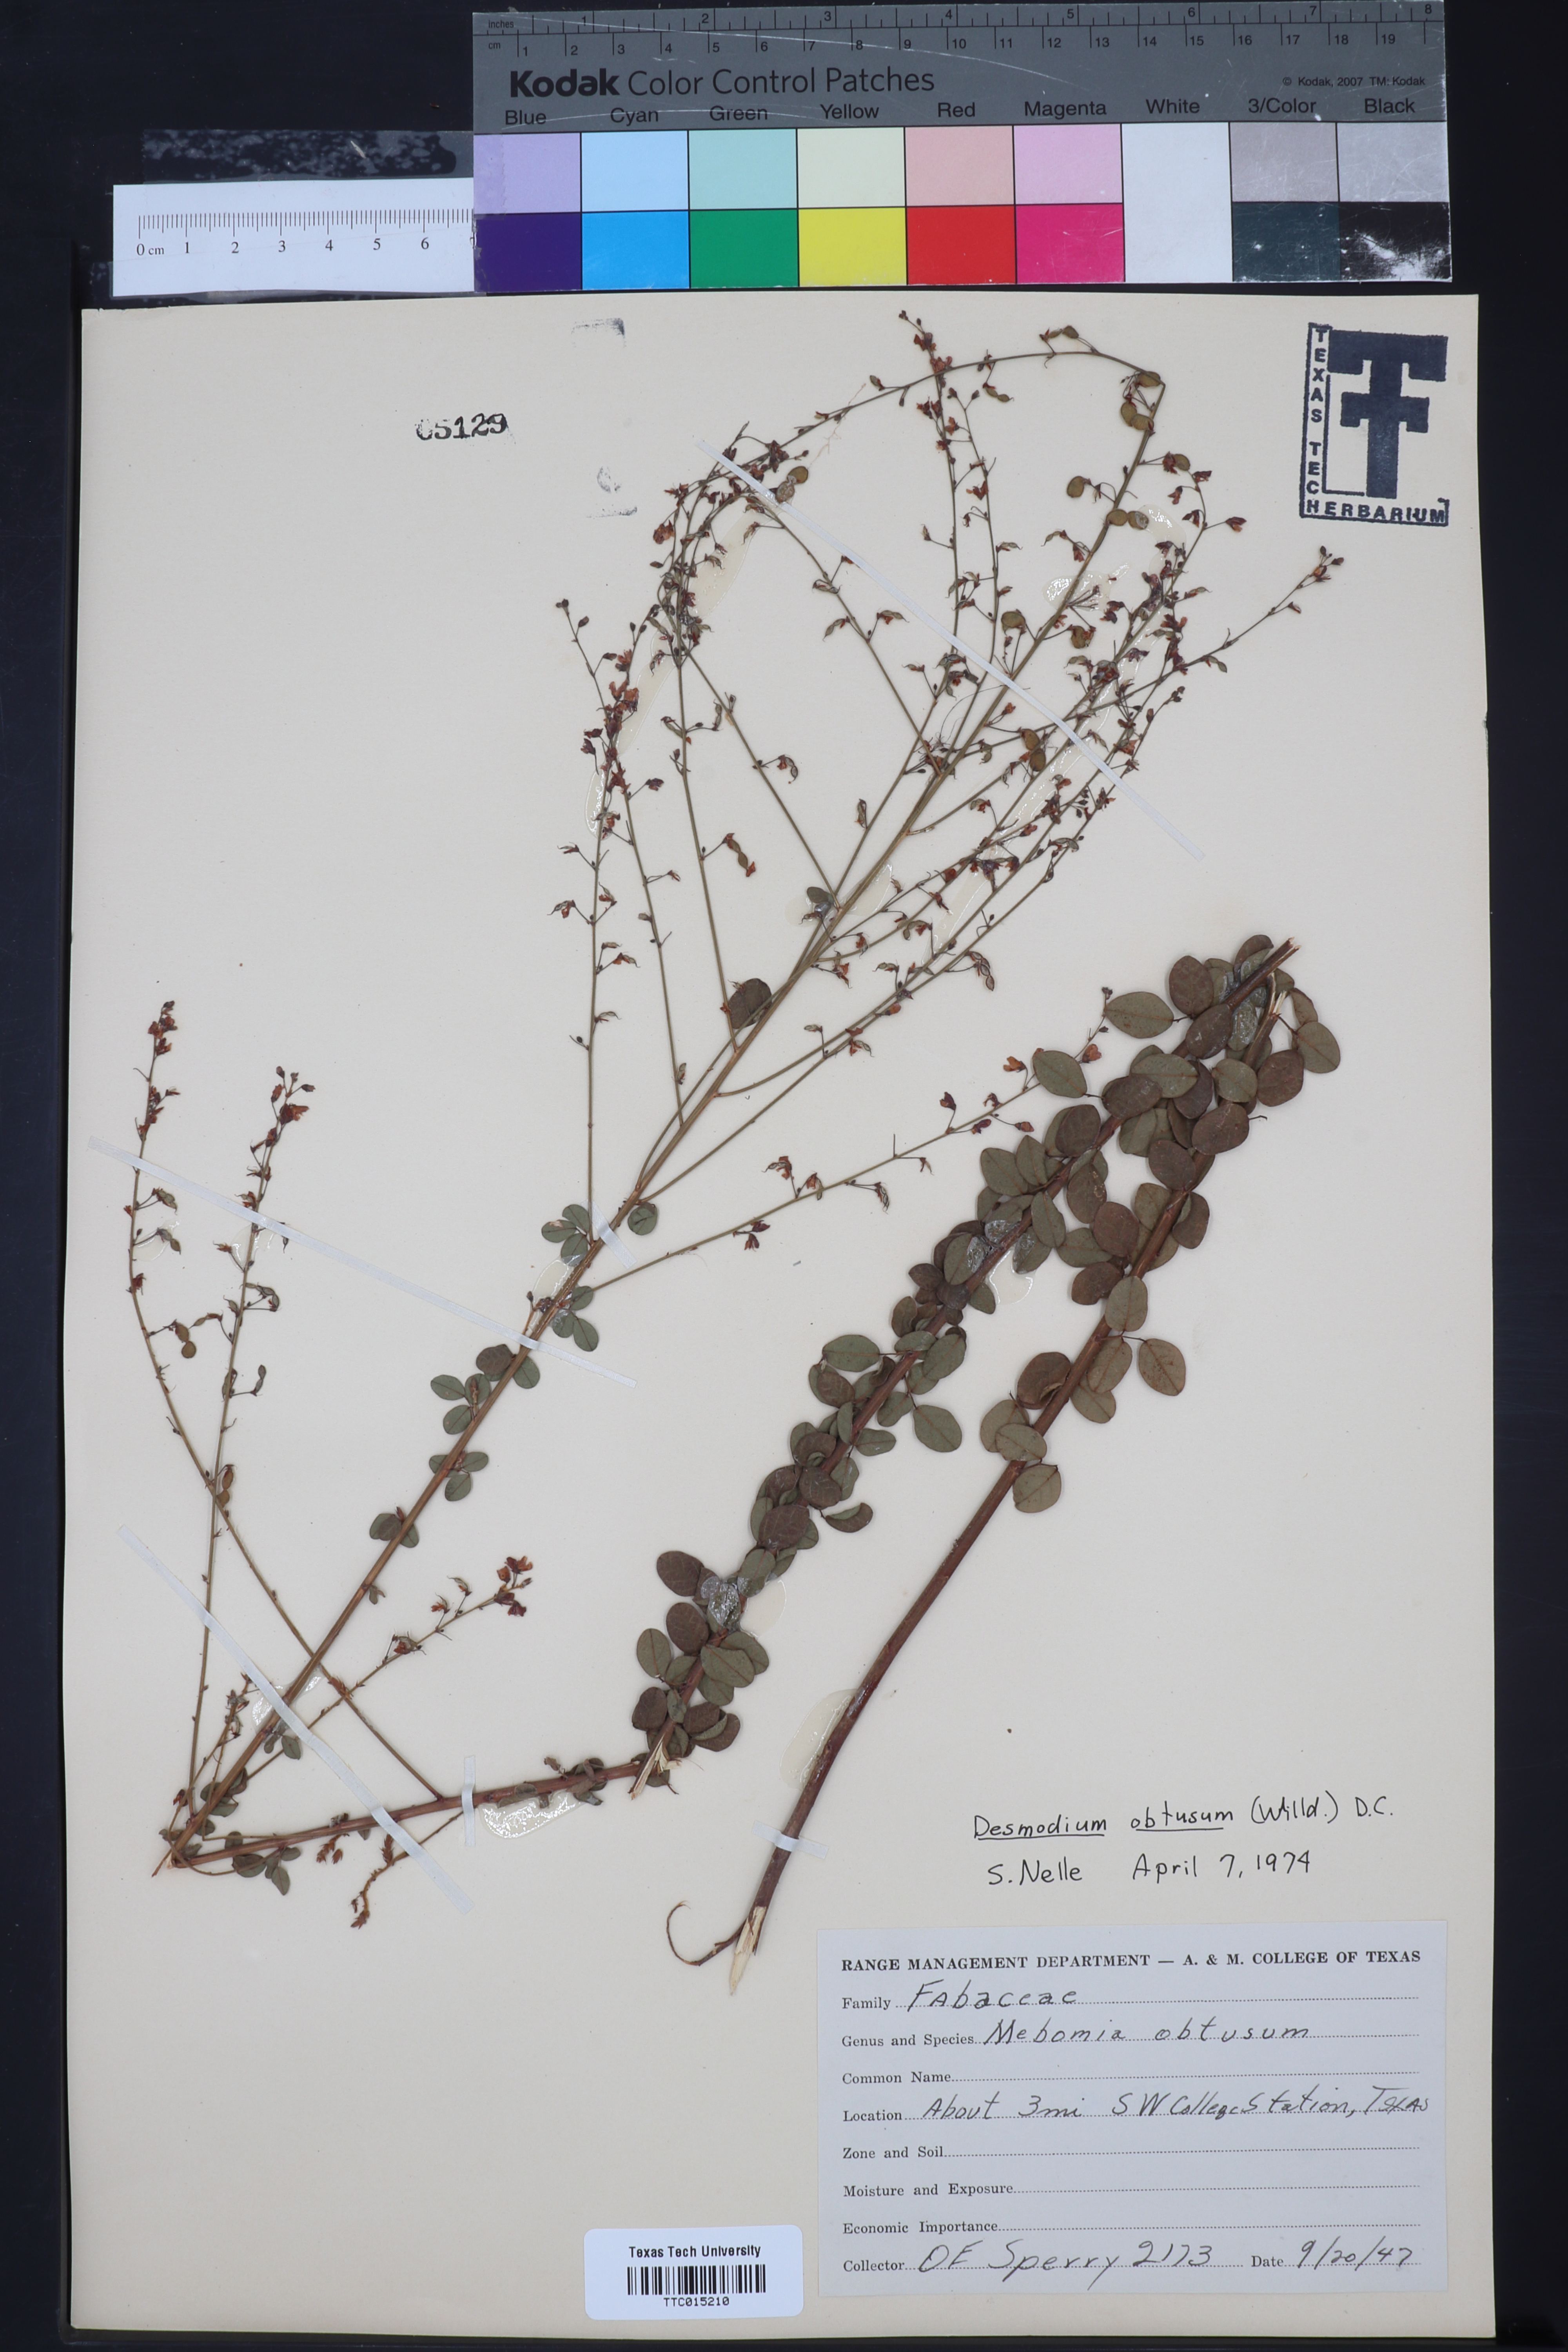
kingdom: Plantae
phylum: Tracheophyta
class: Magnoliopsida
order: Fabales
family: Fabaceae
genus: Desmodium
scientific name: Desmodium obtusum
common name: Stiff tick trefoil
